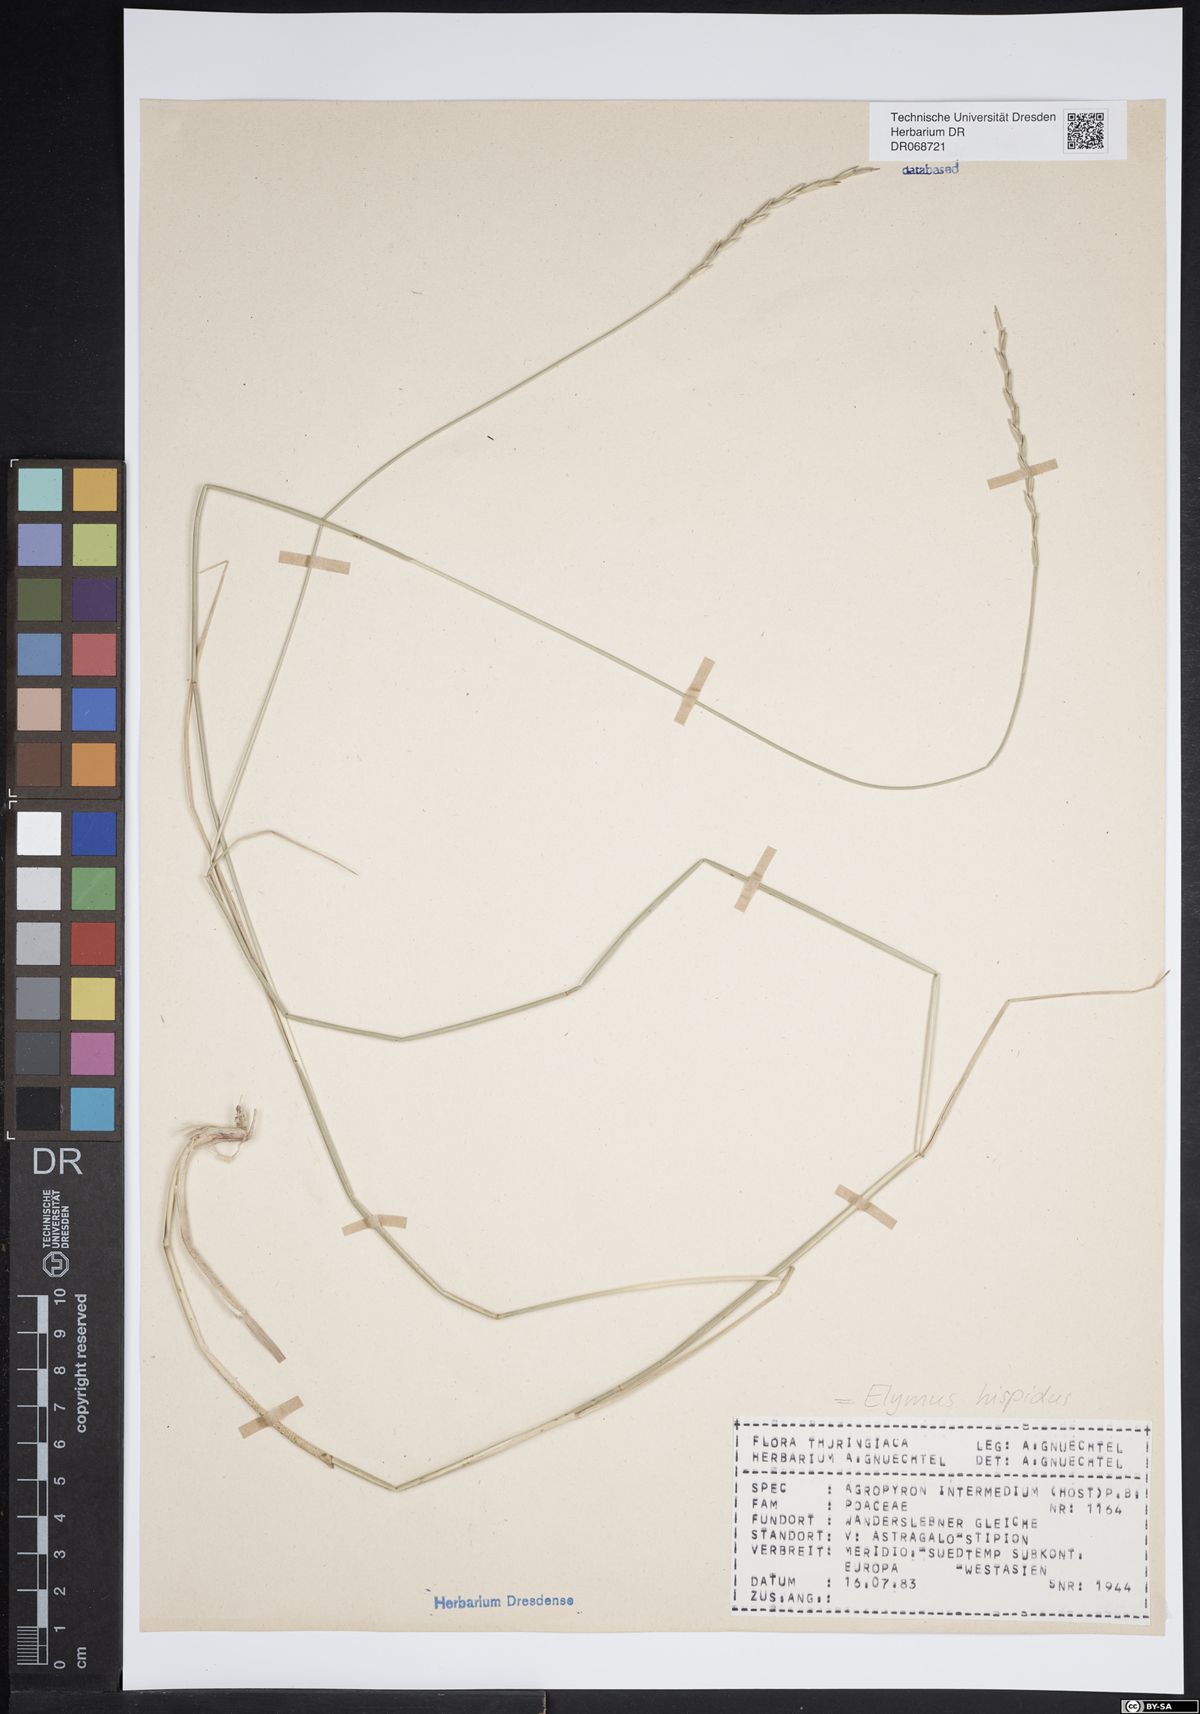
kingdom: Plantae
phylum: Tracheophyta
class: Liliopsida
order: Poales
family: Poaceae
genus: Thinopyrum
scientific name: Thinopyrum intermedium
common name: Intermediate wheatgrass
